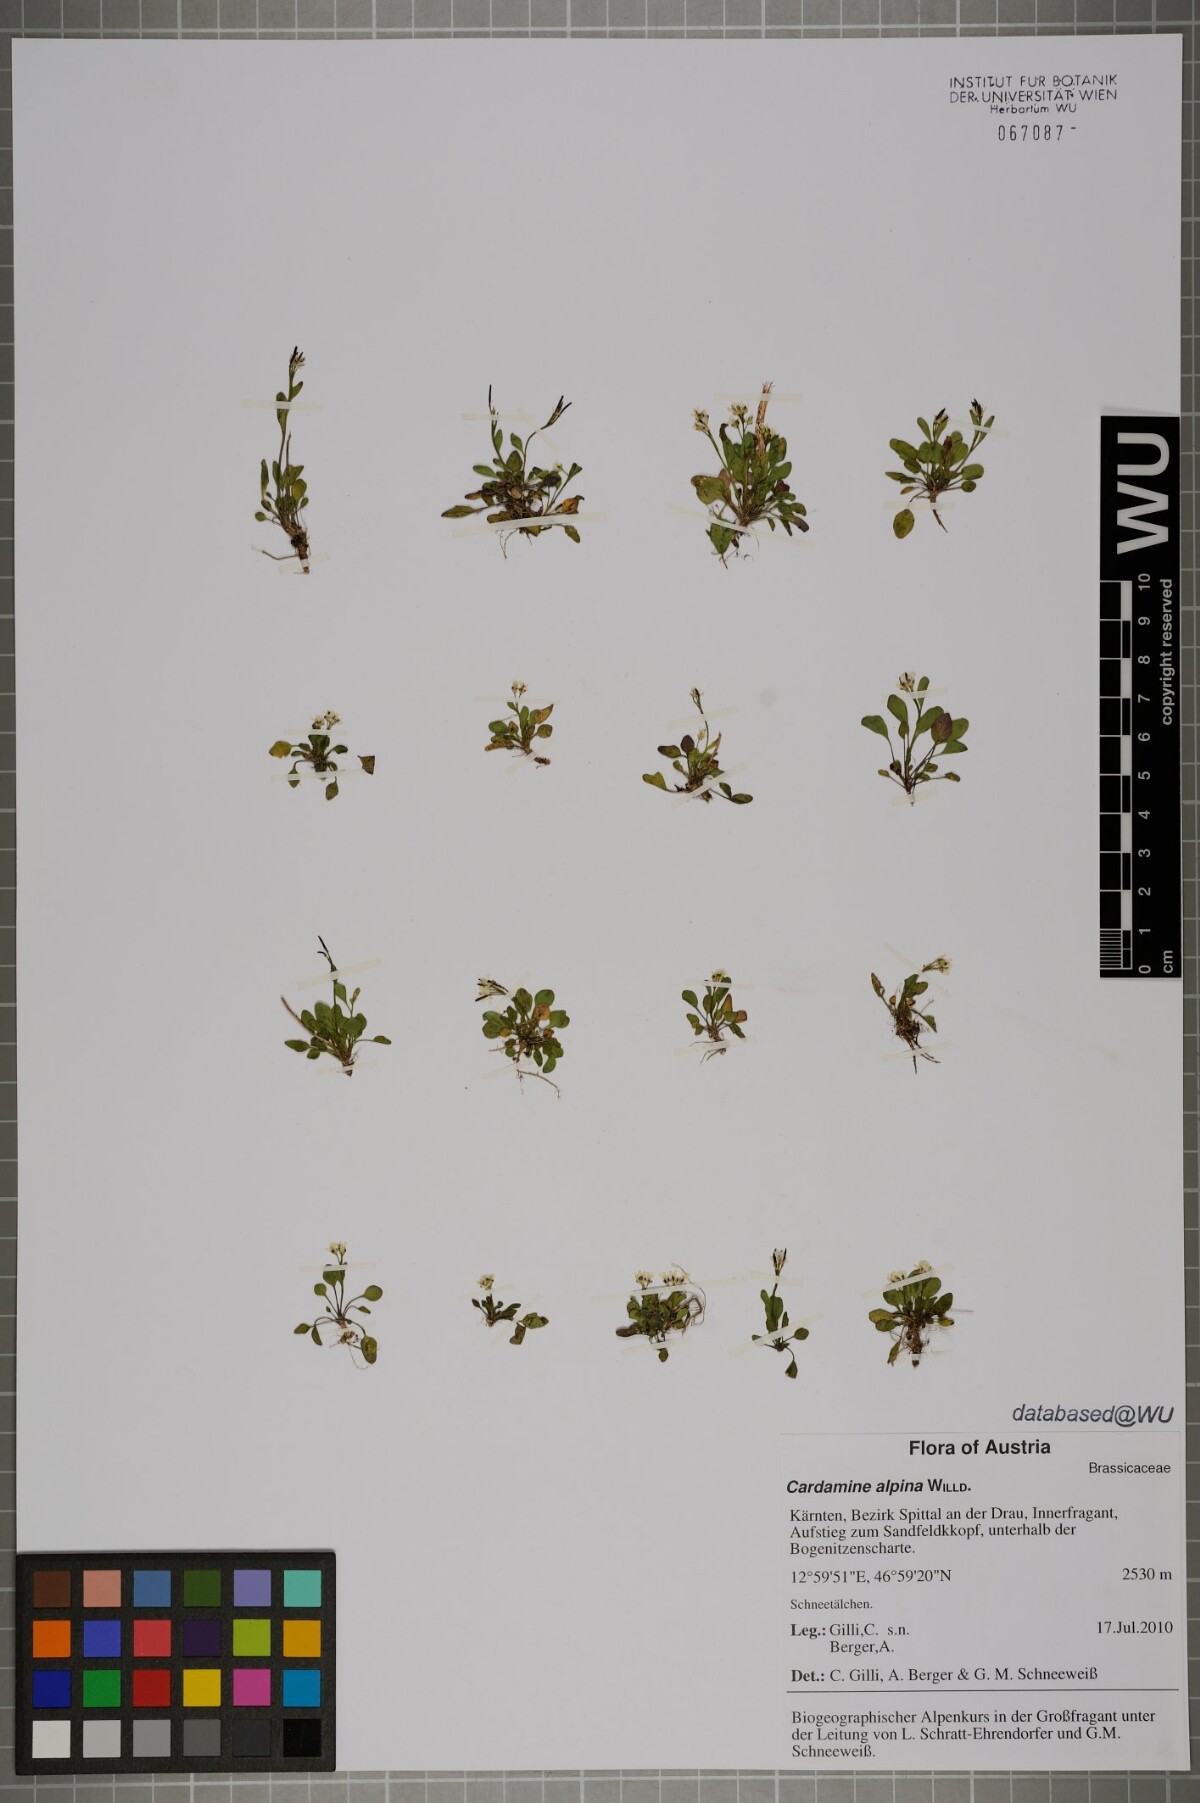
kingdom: Plantae
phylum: Tracheophyta
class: Magnoliopsida
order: Brassicales
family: Brassicaceae
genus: Cardamine
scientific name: Cardamine bellidifolia
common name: Alpine bittercress
